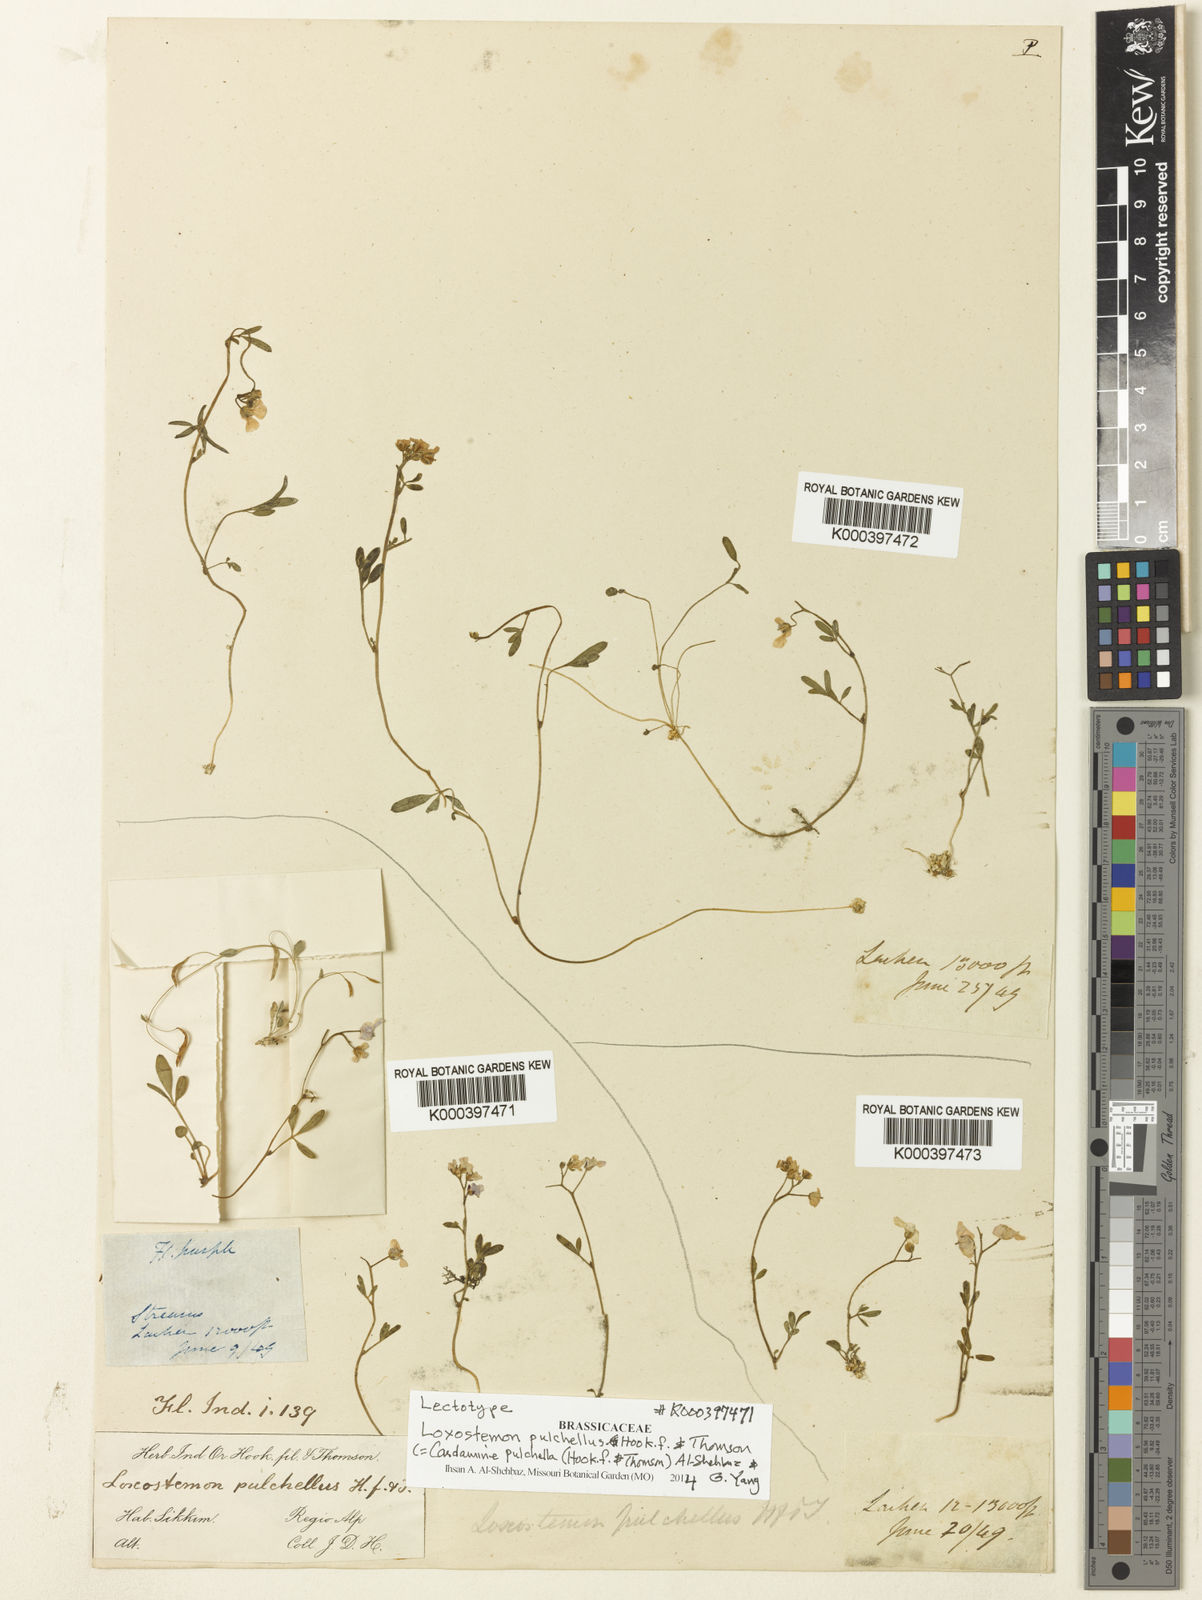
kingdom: Plantae
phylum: Tracheophyta
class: Magnoliopsida
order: Brassicales
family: Brassicaceae
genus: Cardamine
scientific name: Cardamine pulchella
